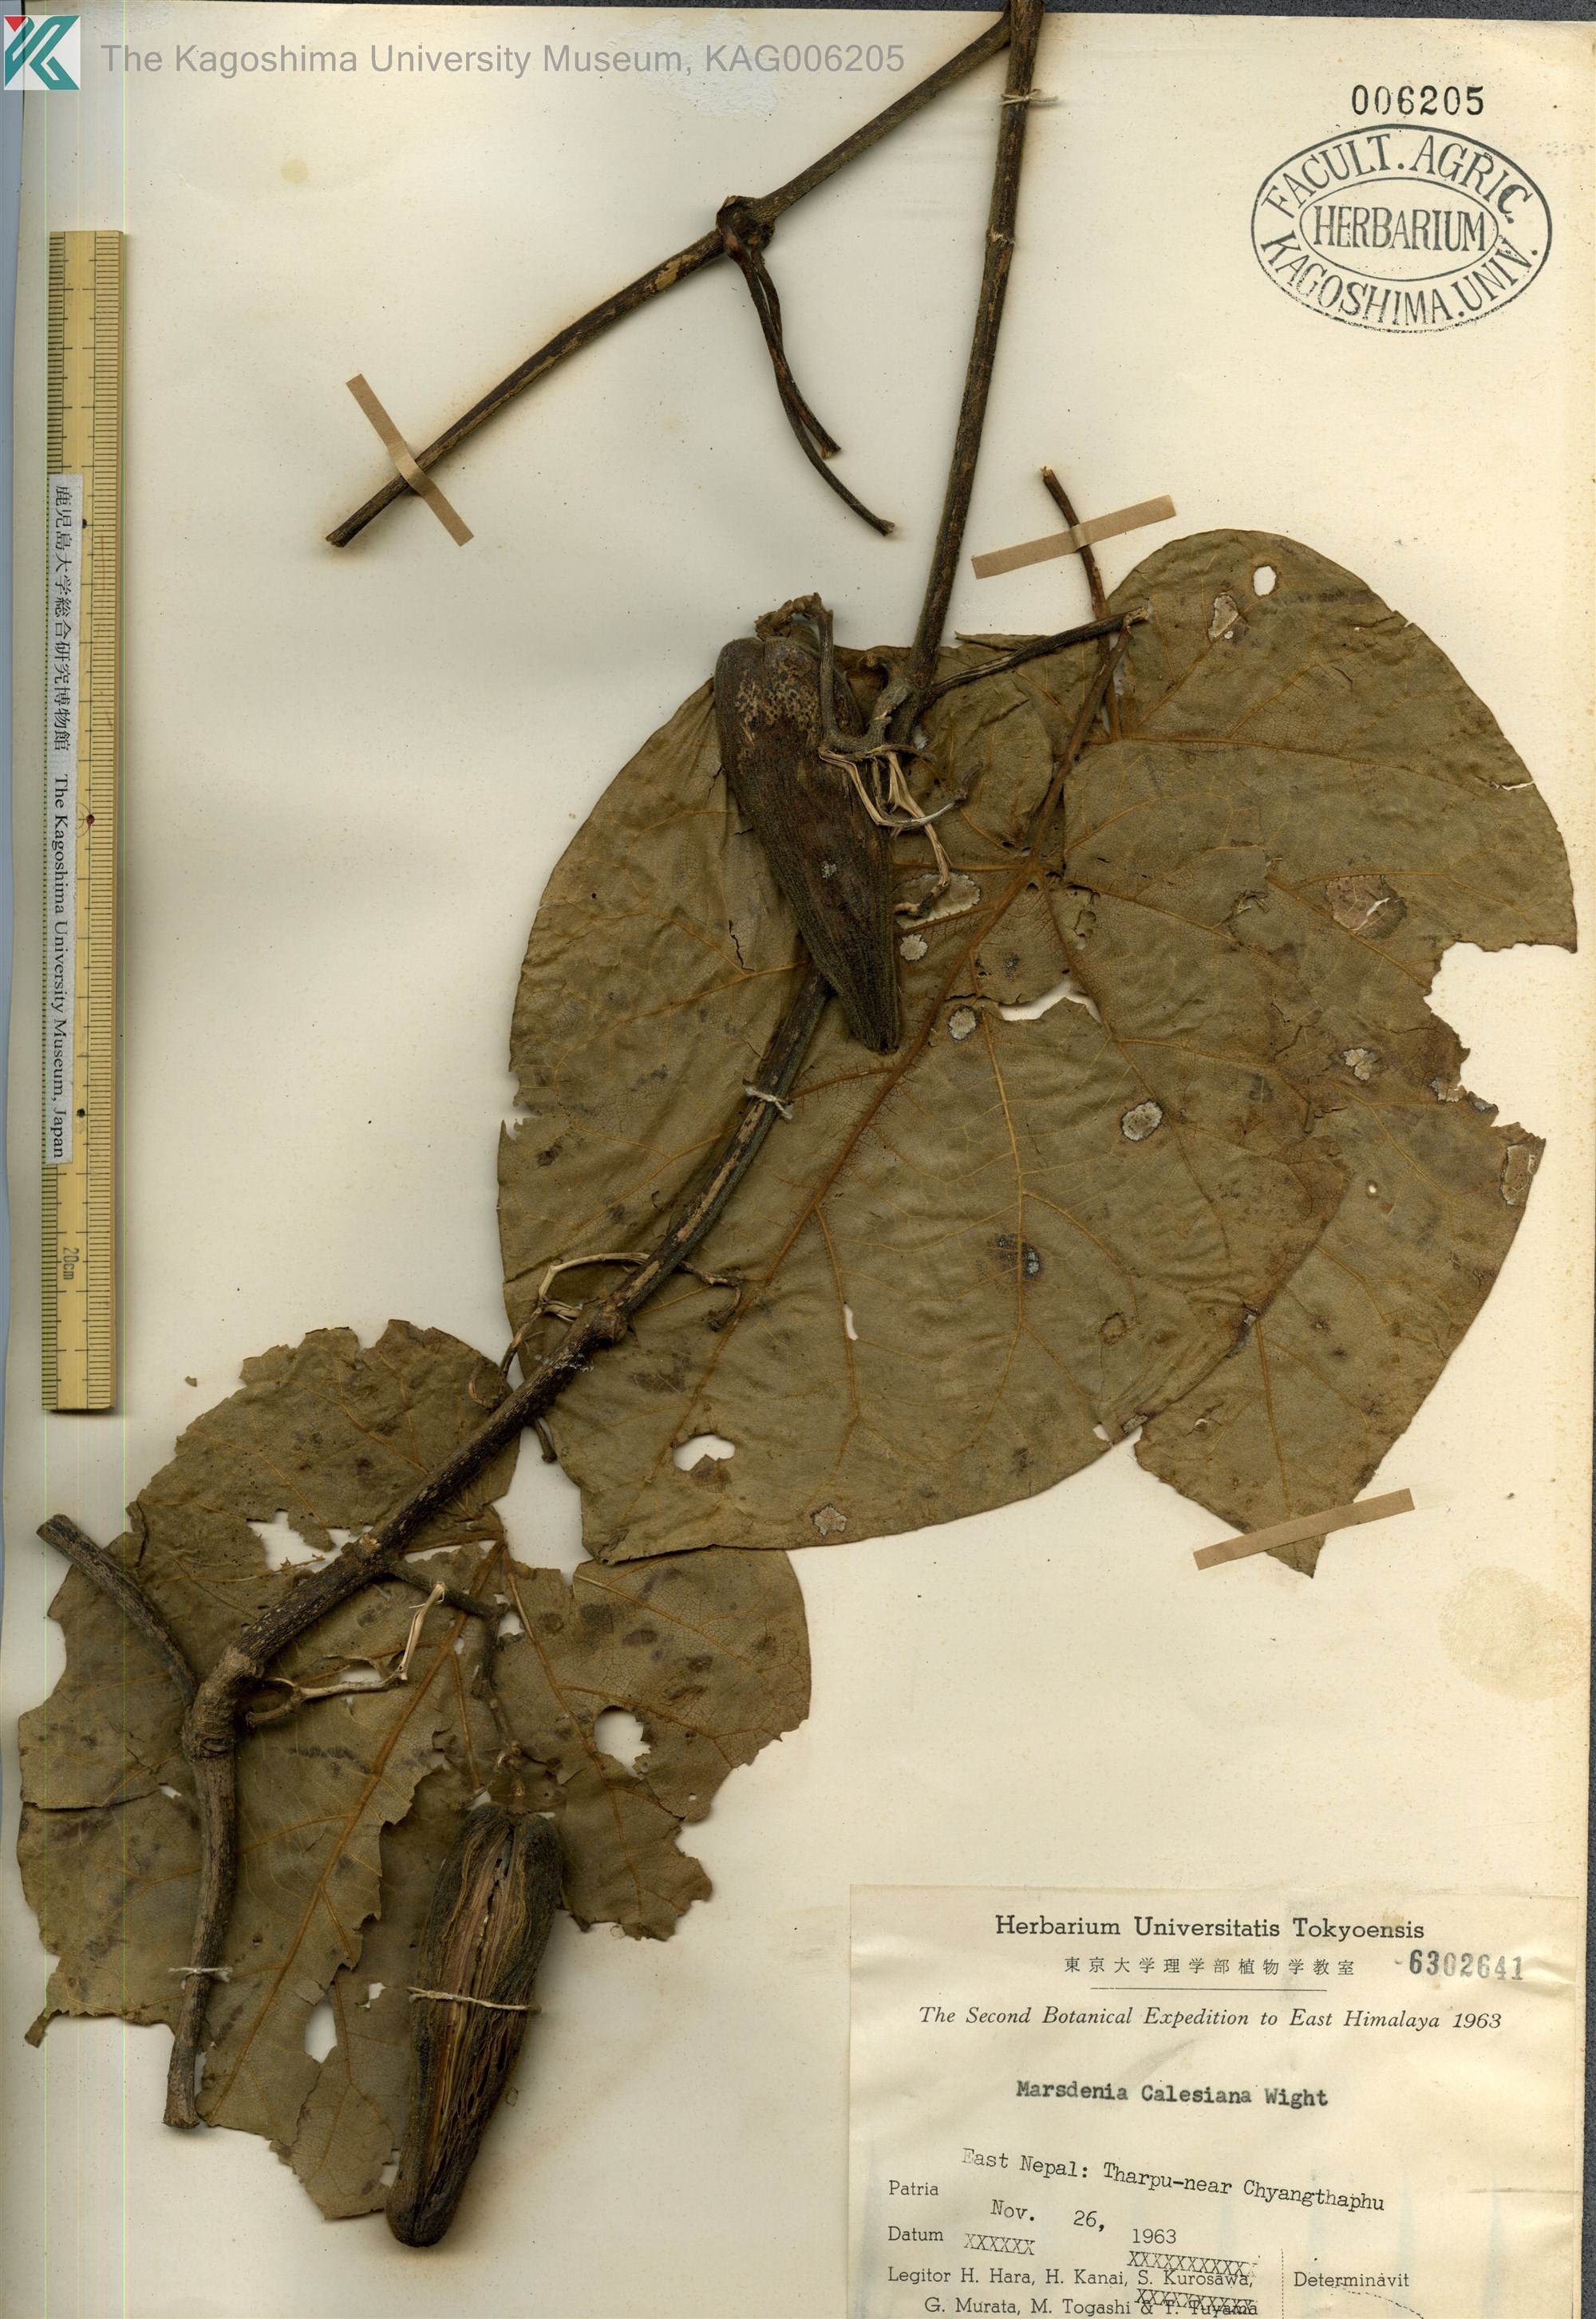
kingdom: Plantae
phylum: Tracheophyta
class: Magnoliopsida
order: Gentianales
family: Apocynaceae
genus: Gongronemopsis
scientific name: Gongronemopsis calesiana
